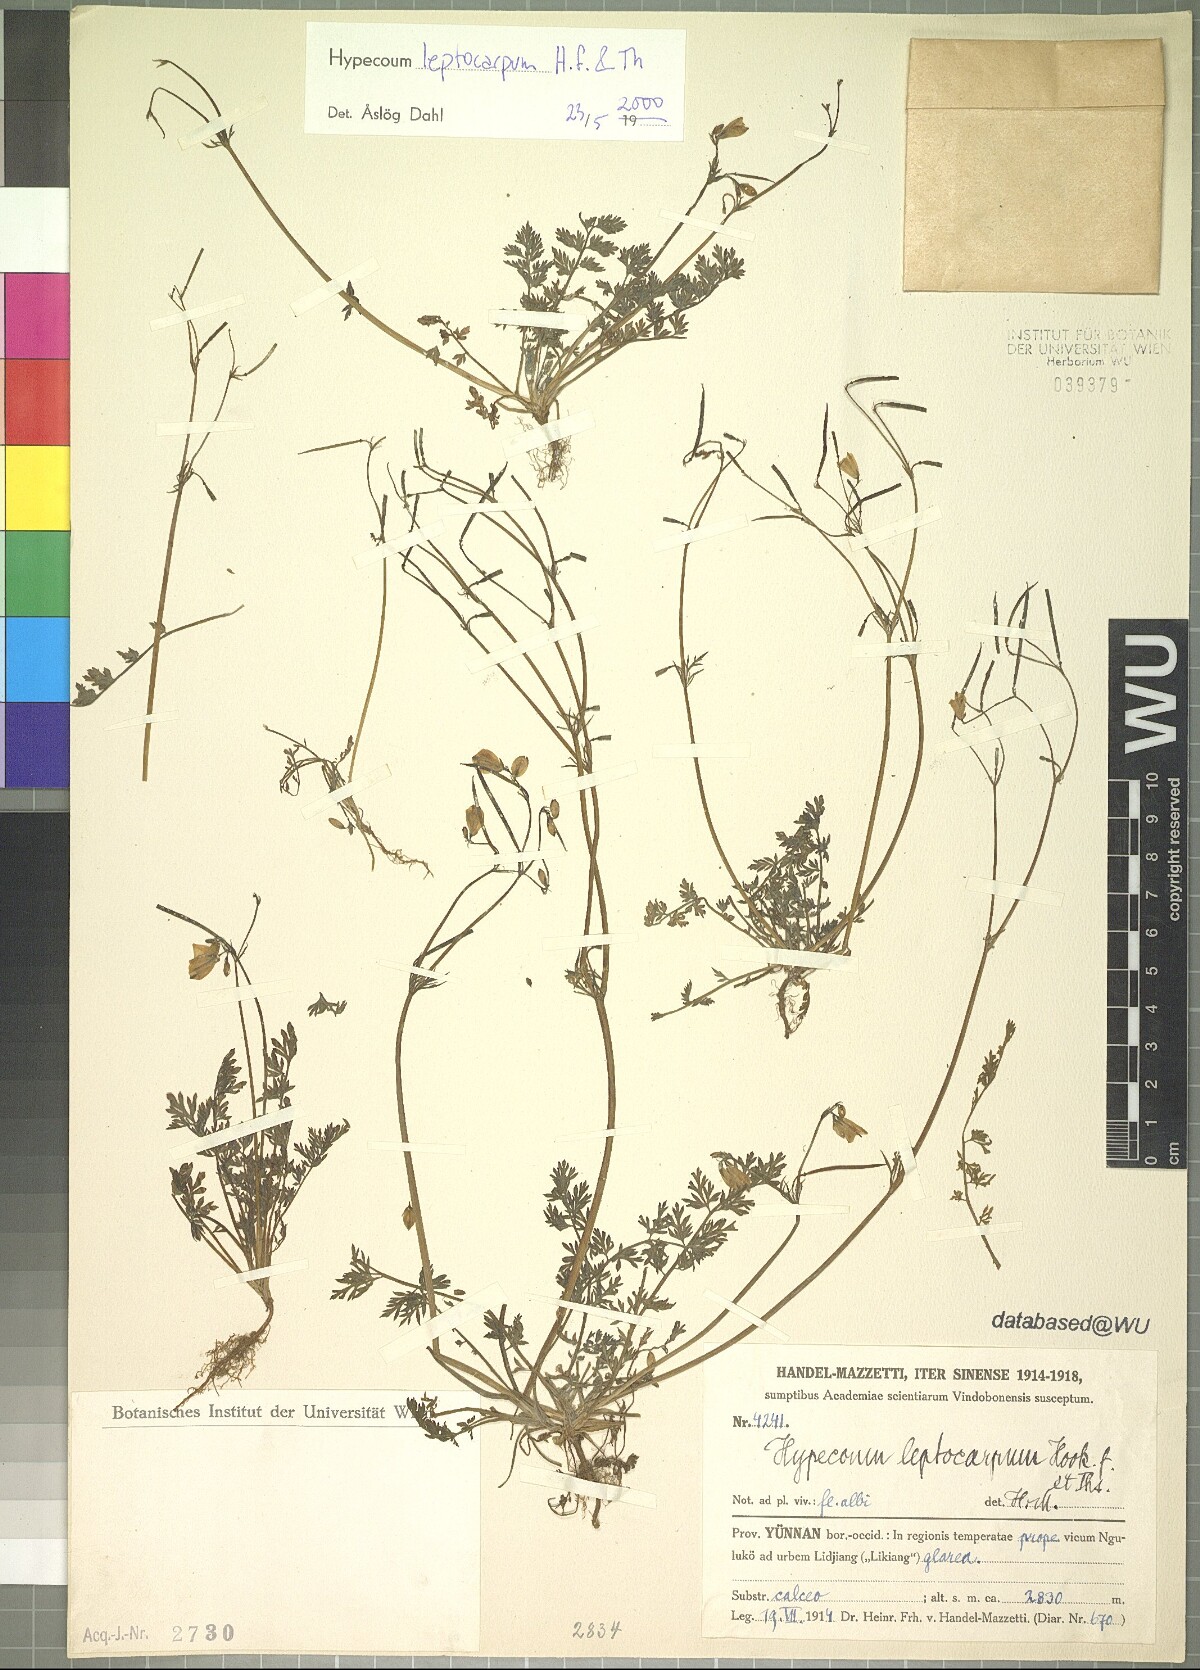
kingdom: Plantae
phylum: Tracheophyta
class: Magnoliopsida
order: Ranunculales
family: Papaveraceae
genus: Hypecoum
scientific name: Hypecoum leptocarpum
